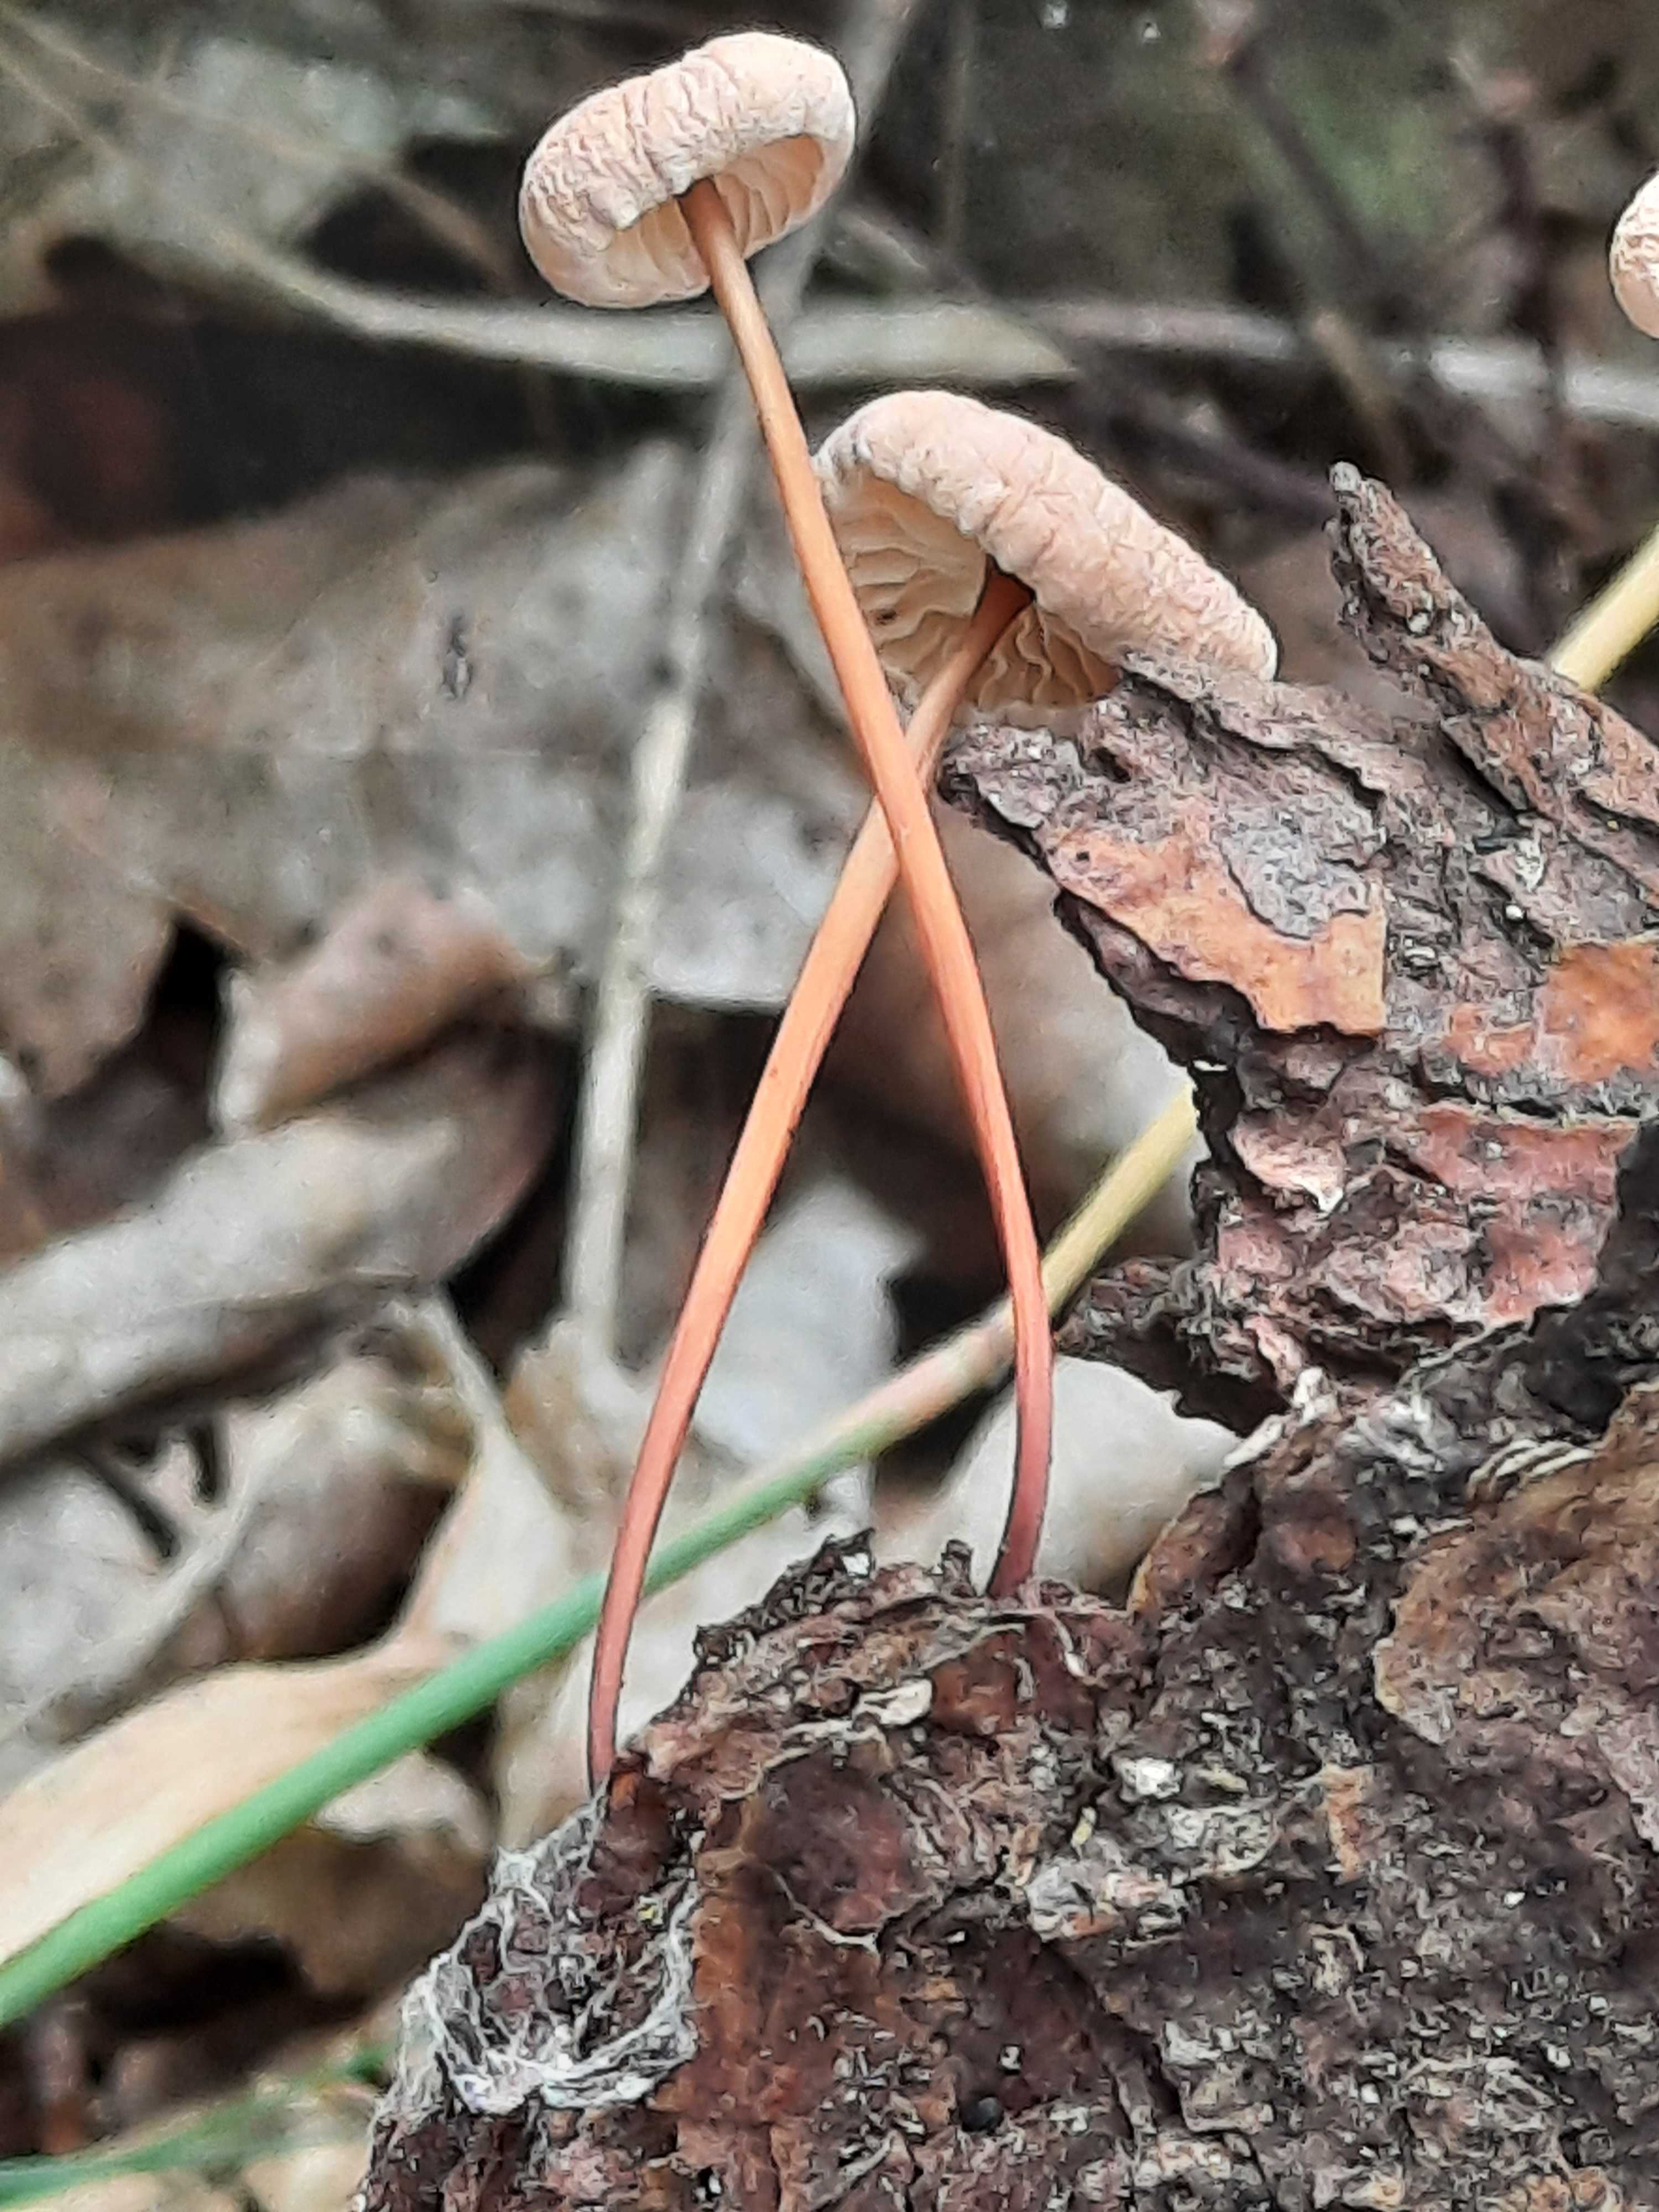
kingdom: Fungi
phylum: Basidiomycota
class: Agaricomycetes
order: Agaricales
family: Omphalotaceae
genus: Mycetinis
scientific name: Mycetinis scorodonius
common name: lille løghat
